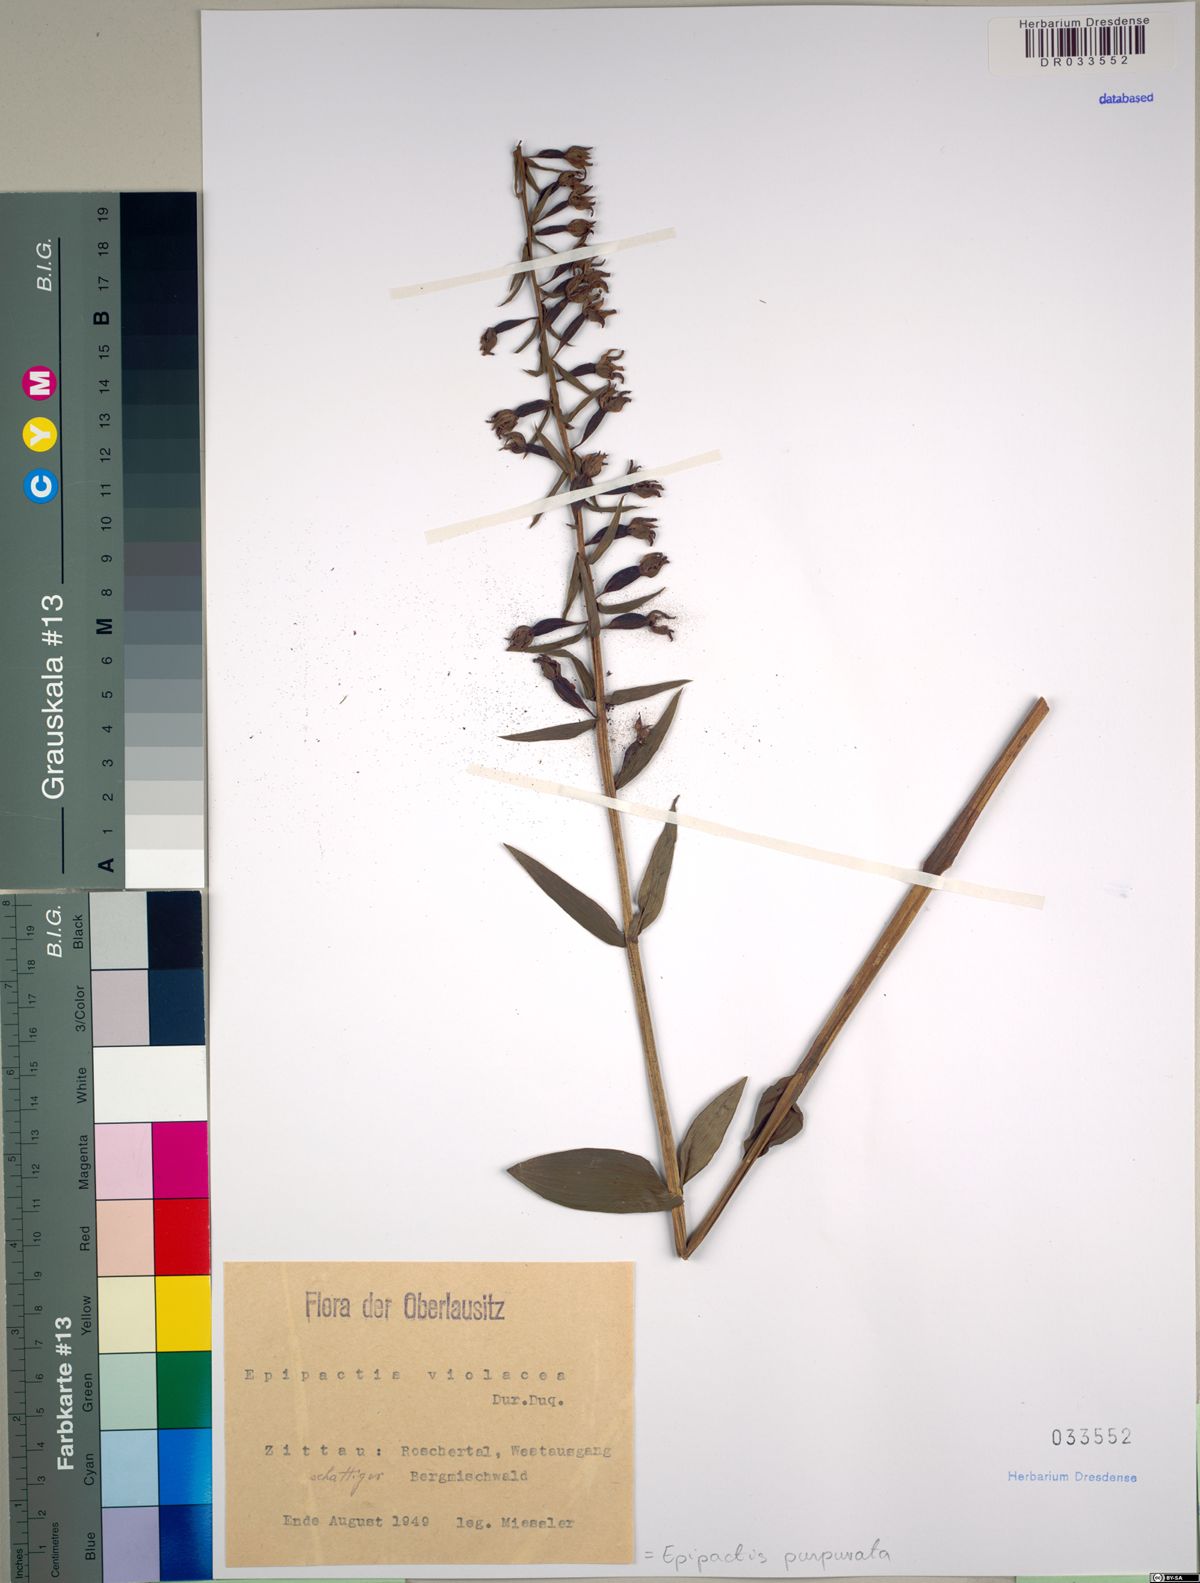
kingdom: Plantae
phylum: Tracheophyta
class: Liliopsida
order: Asparagales
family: Orchidaceae
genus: Epipactis
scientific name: Epipactis purpurata
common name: Violet helleborine
